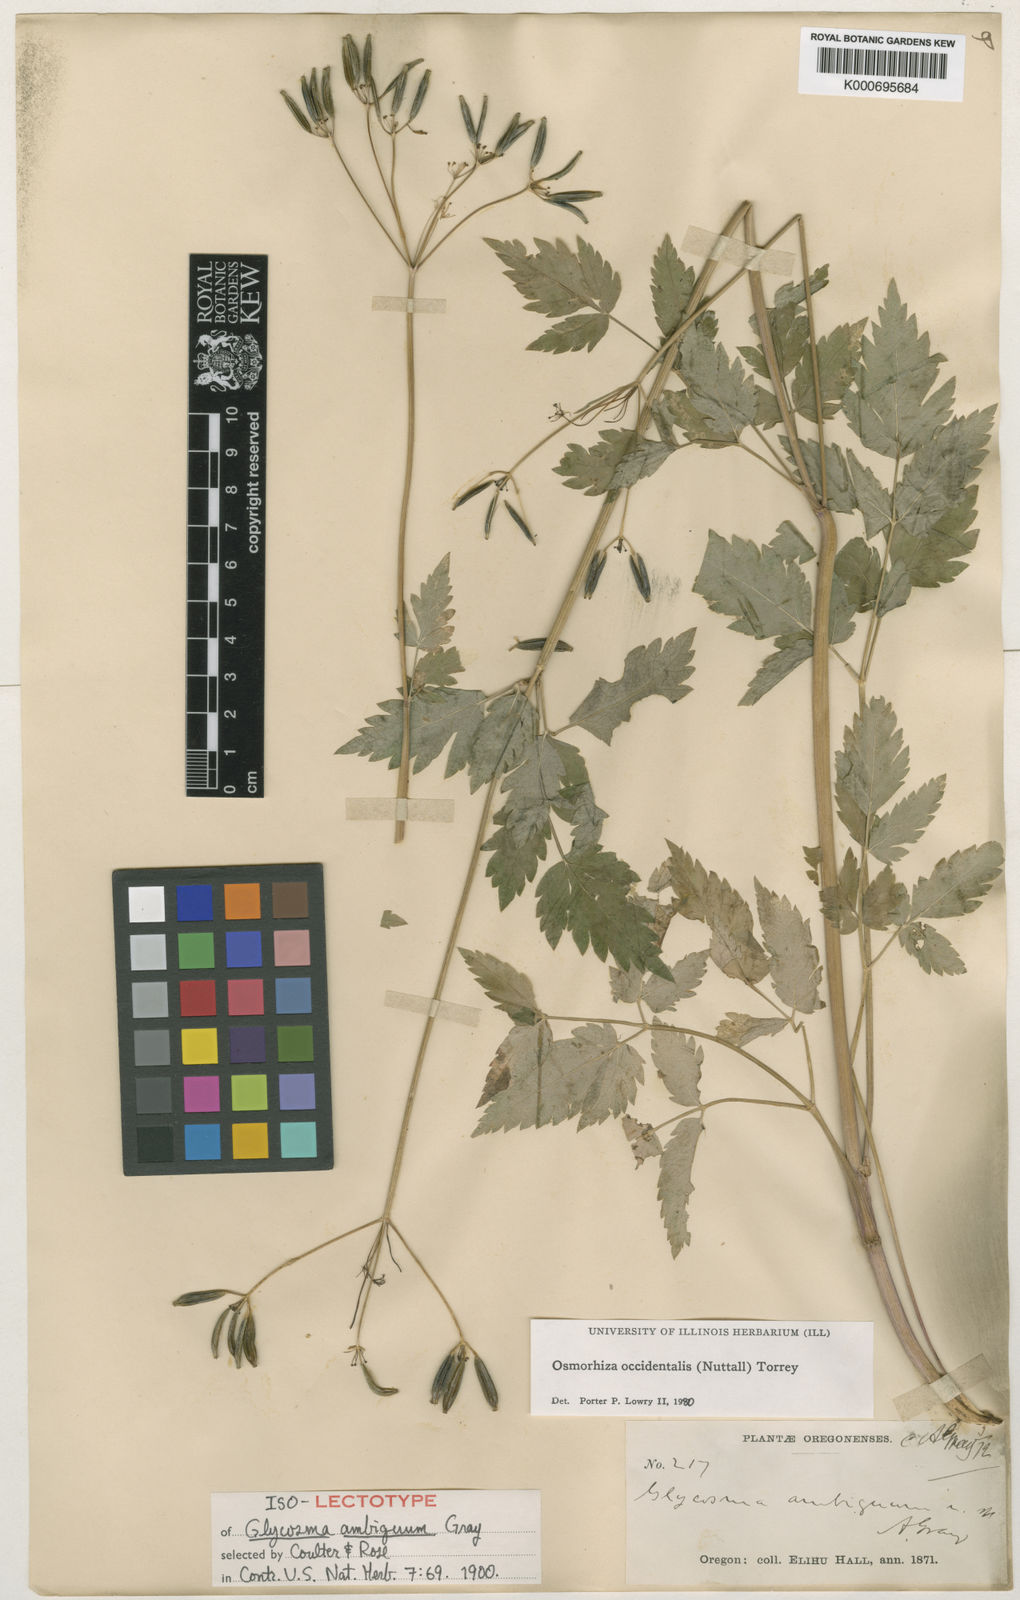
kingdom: Plantae
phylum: Tracheophyta
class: Magnoliopsida
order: Apiales
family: Apiaceae
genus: Osmorhiza
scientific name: Osmorhiza occidentalis
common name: Western sweet cicely
